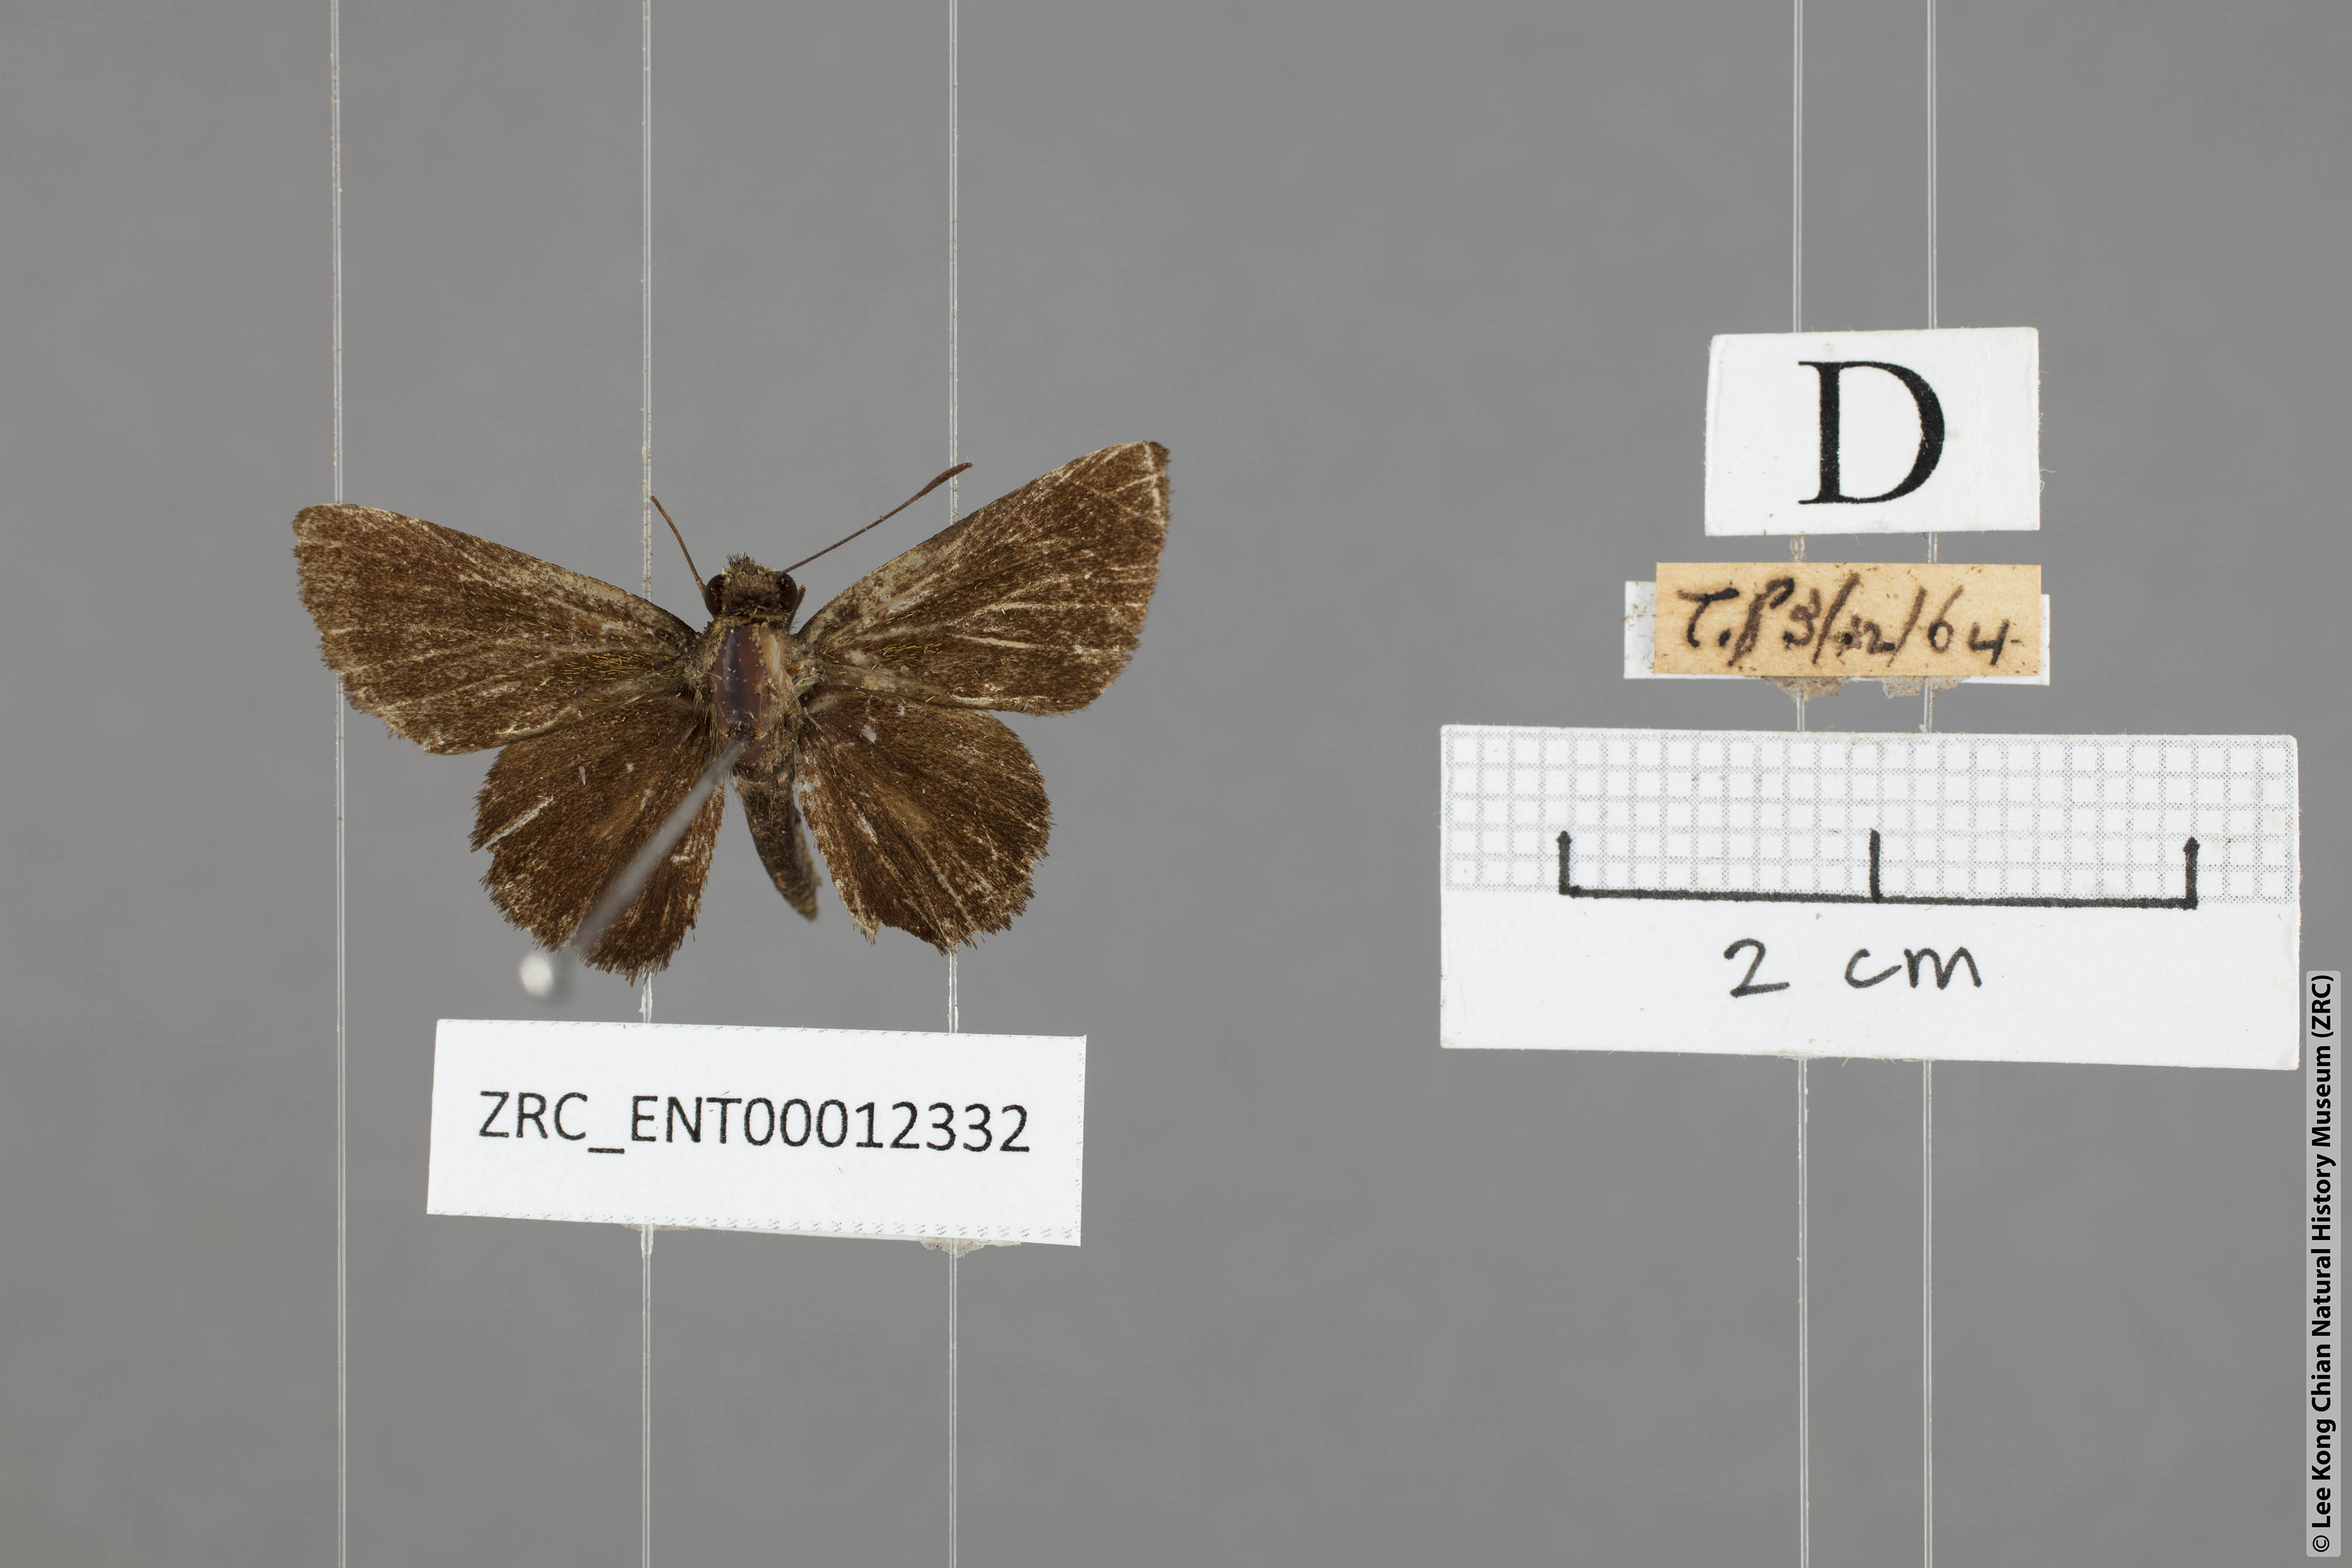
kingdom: Animalia
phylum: Arthropoda
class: Insecta
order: Lepidoptera
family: Hesperiidae
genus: Arnetta
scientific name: Arnetta verones
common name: Sumatran bob
